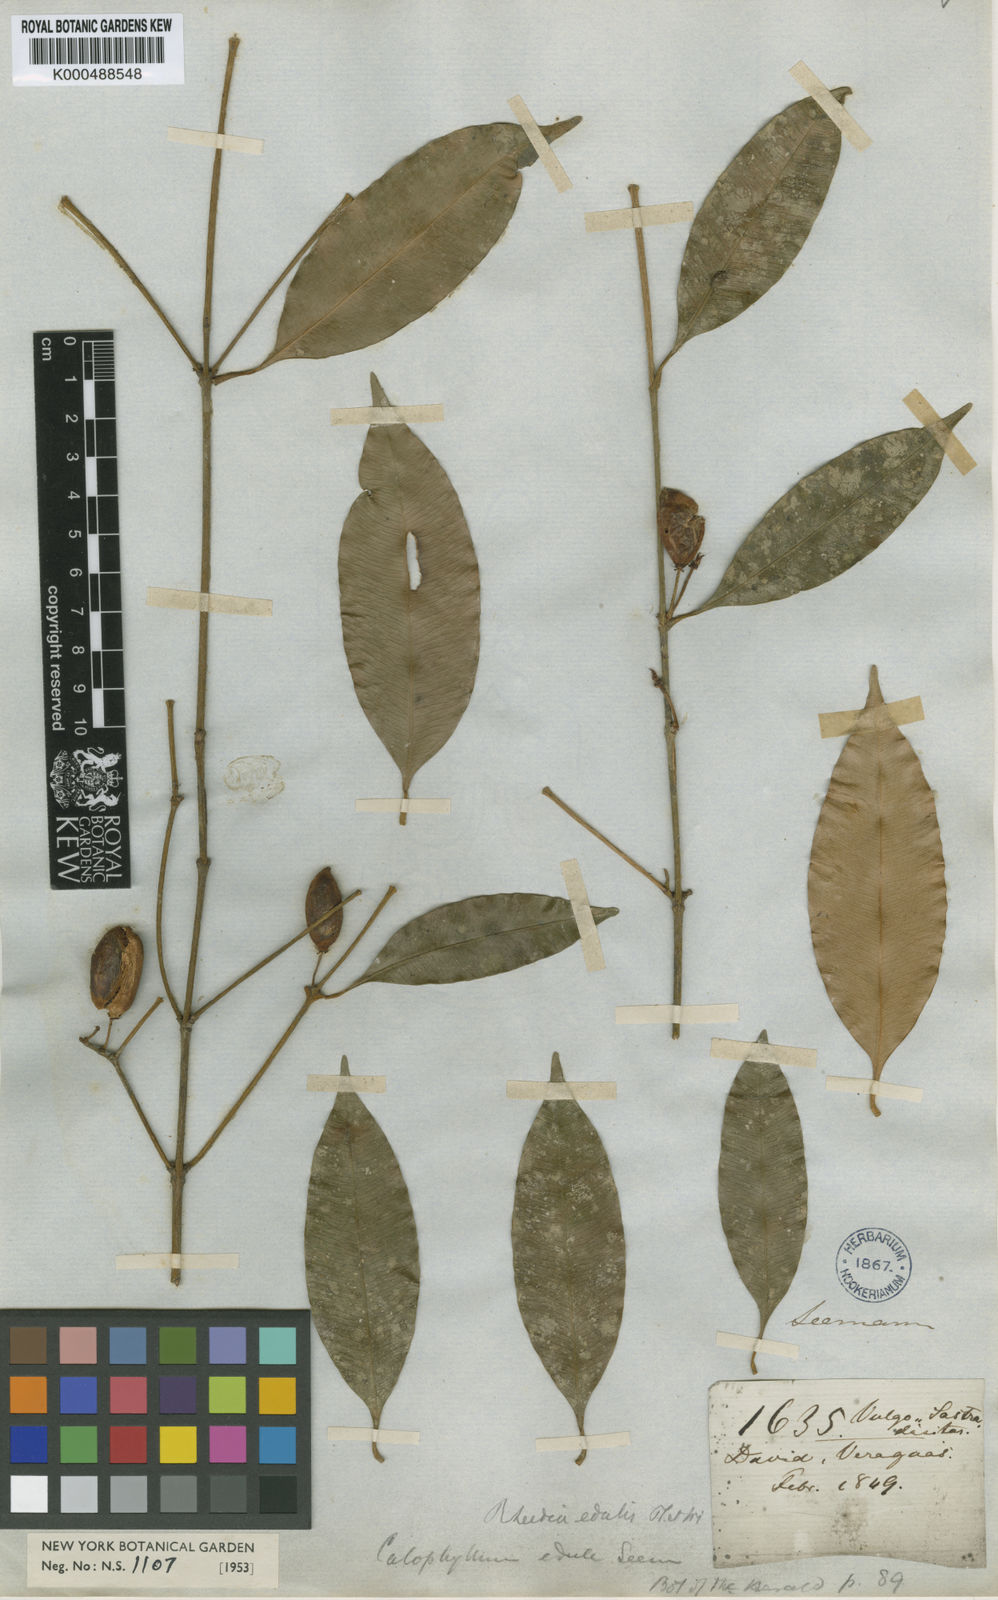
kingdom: Plantae
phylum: Tracheophyta
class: Magnoliopsida
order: Malpighiales
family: Clusiaceae
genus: Garcinia
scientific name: Garcinia intermedia
